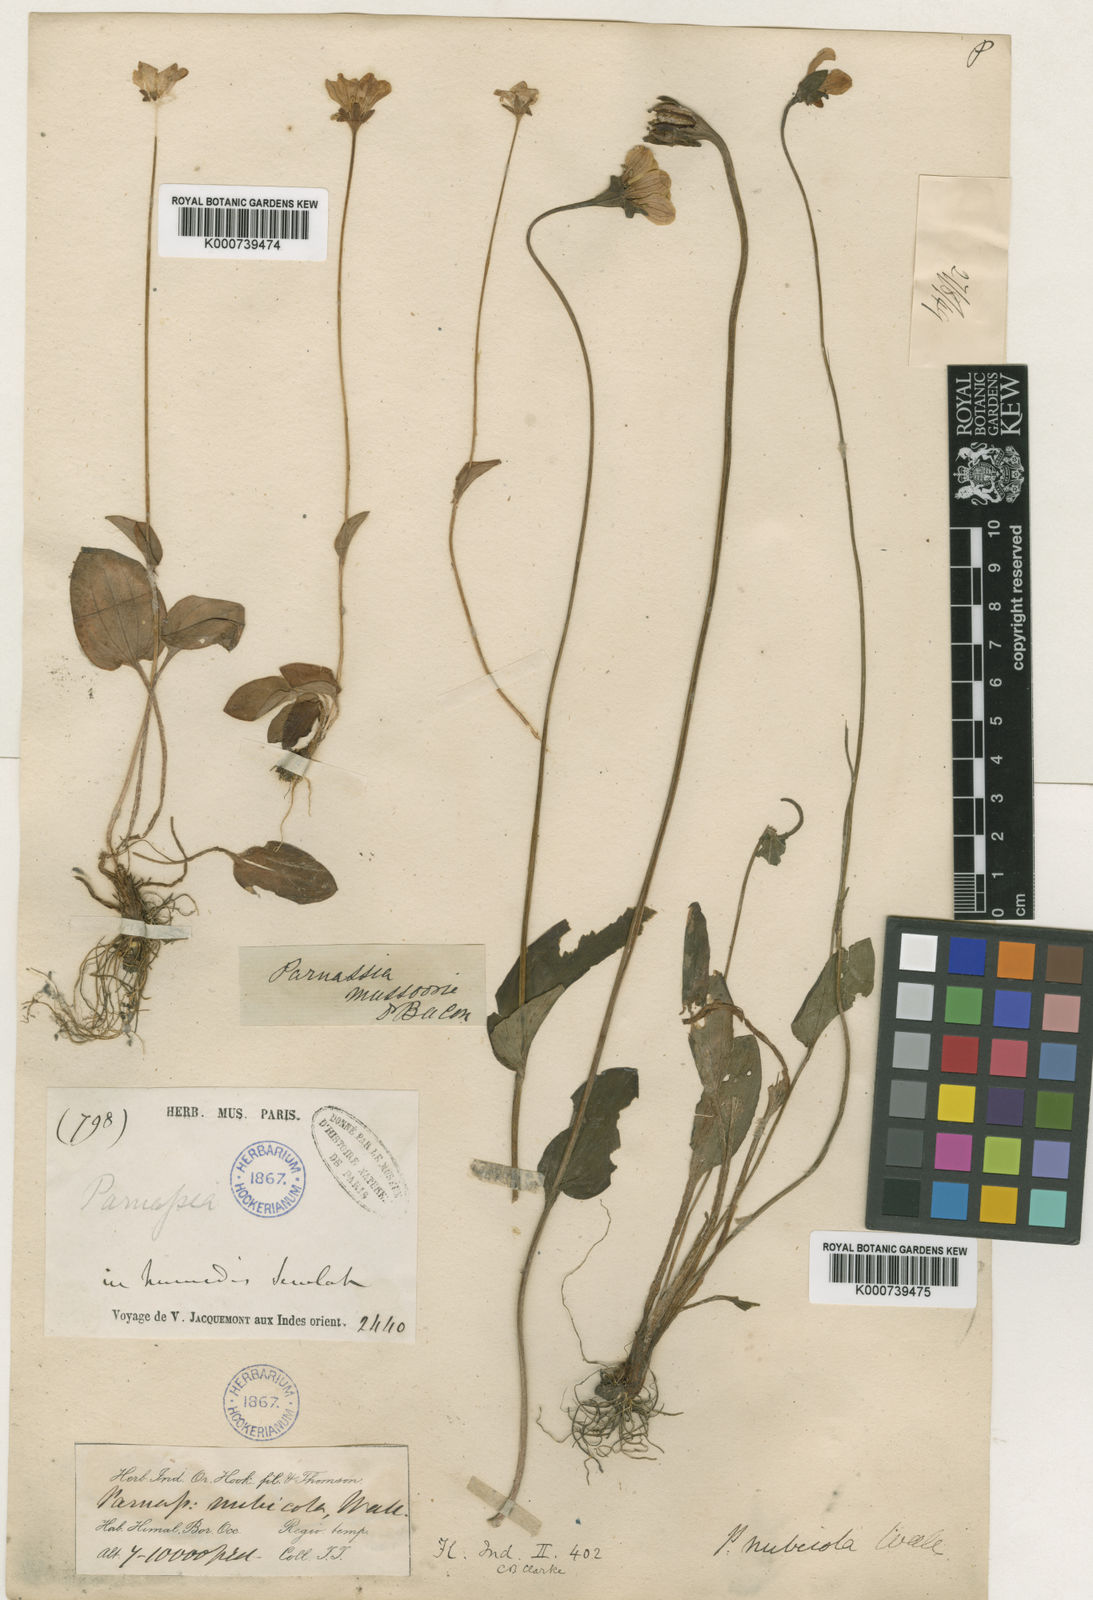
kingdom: Plantae
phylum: Tracheophyta
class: Magnoliopsida
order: Celastrales
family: Parnassiaceae
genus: Parnassia
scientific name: Parnassia
